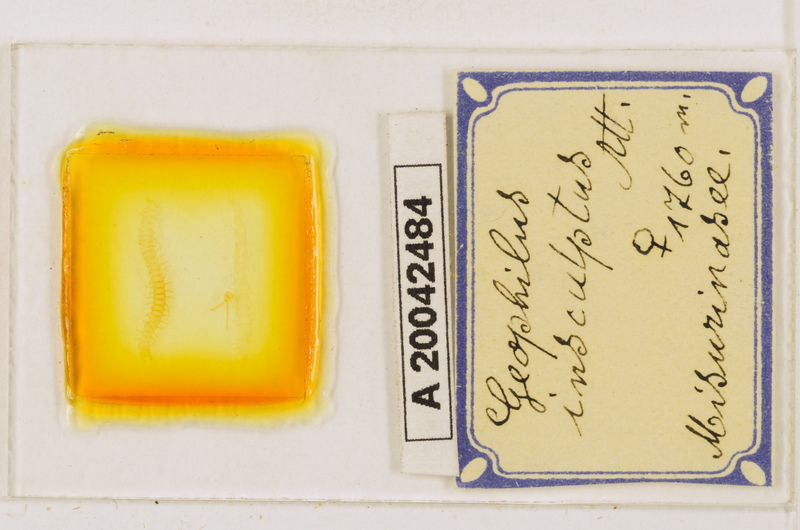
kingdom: Animalia
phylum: Arthropoda
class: Chilopoda
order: Geophilomorpha
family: Geophilidae
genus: Geophilus
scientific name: Geophilus insculptus
